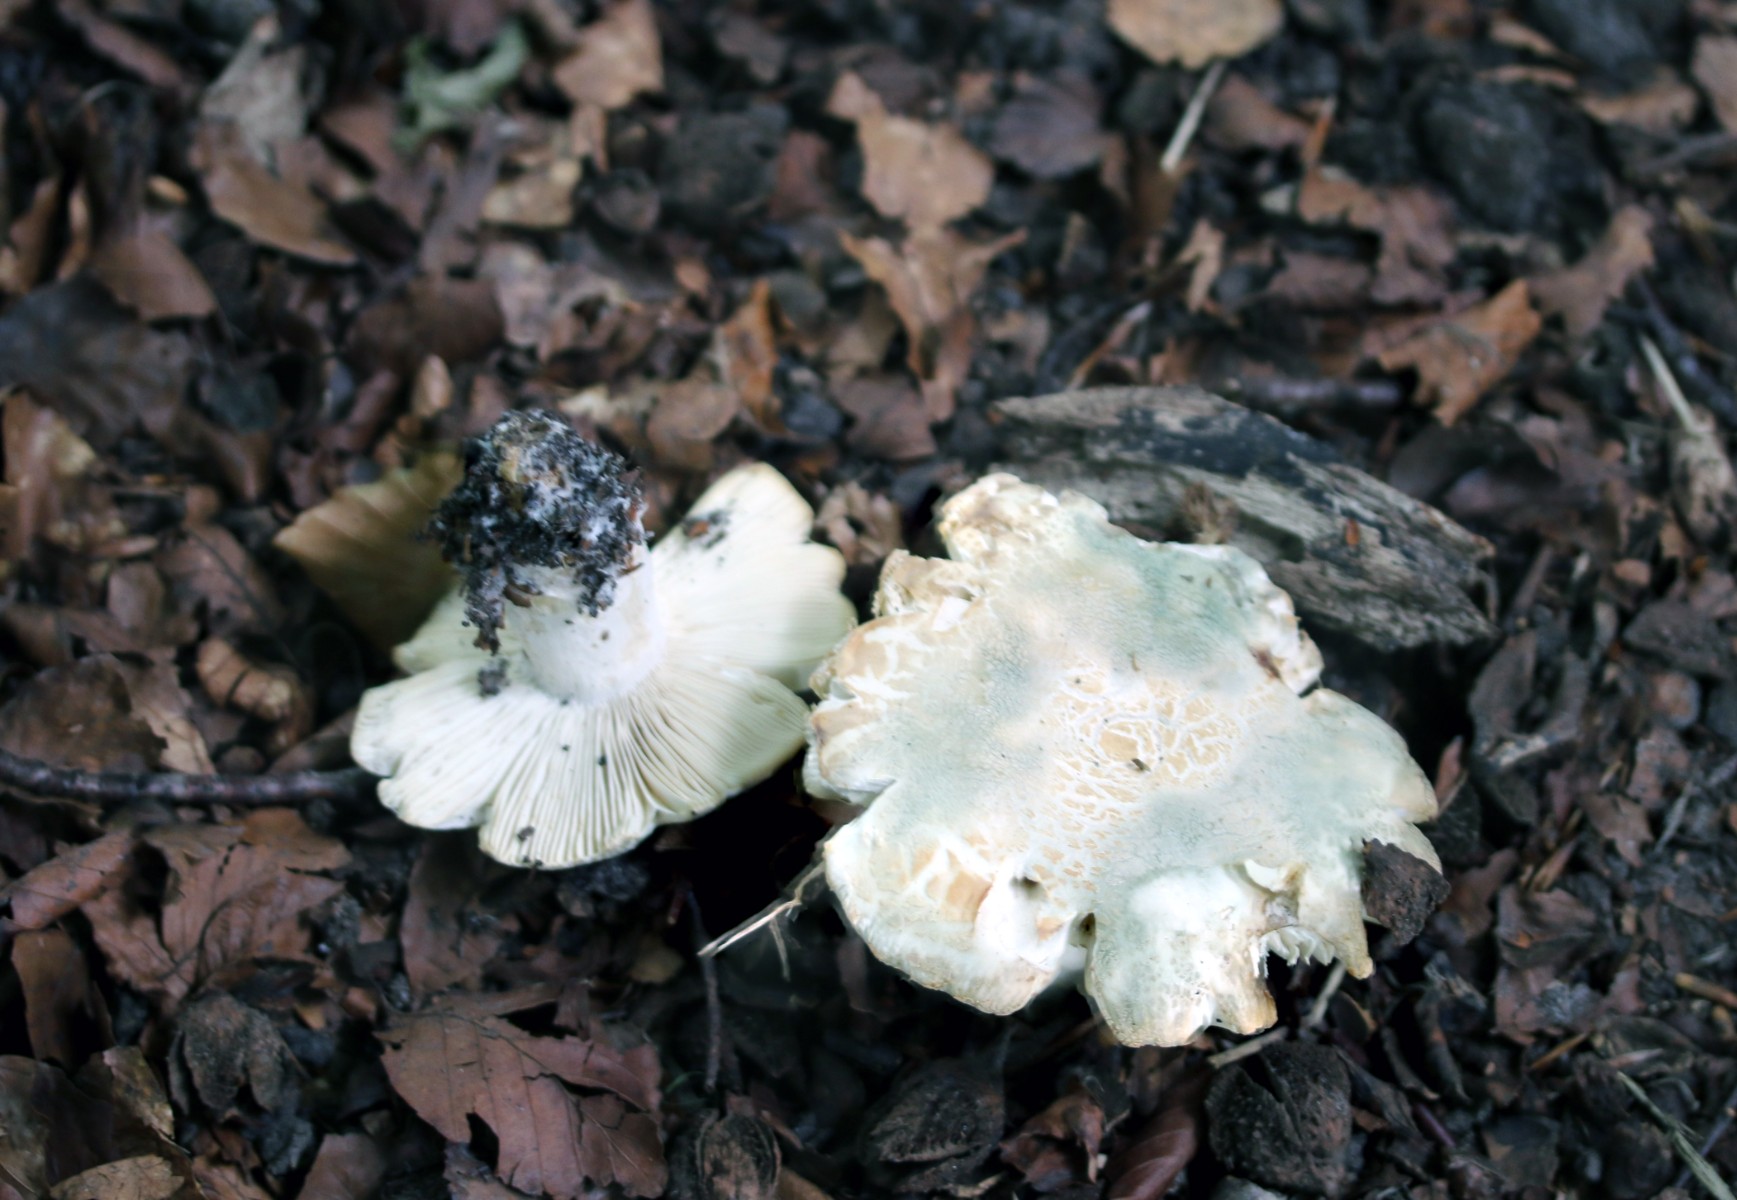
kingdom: Fungi
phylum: Basidiomycota
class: Agaricomycetes
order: Russulales
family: Russulaceae
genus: Russula
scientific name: Russula virescens
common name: spanskgrøn skørhat
